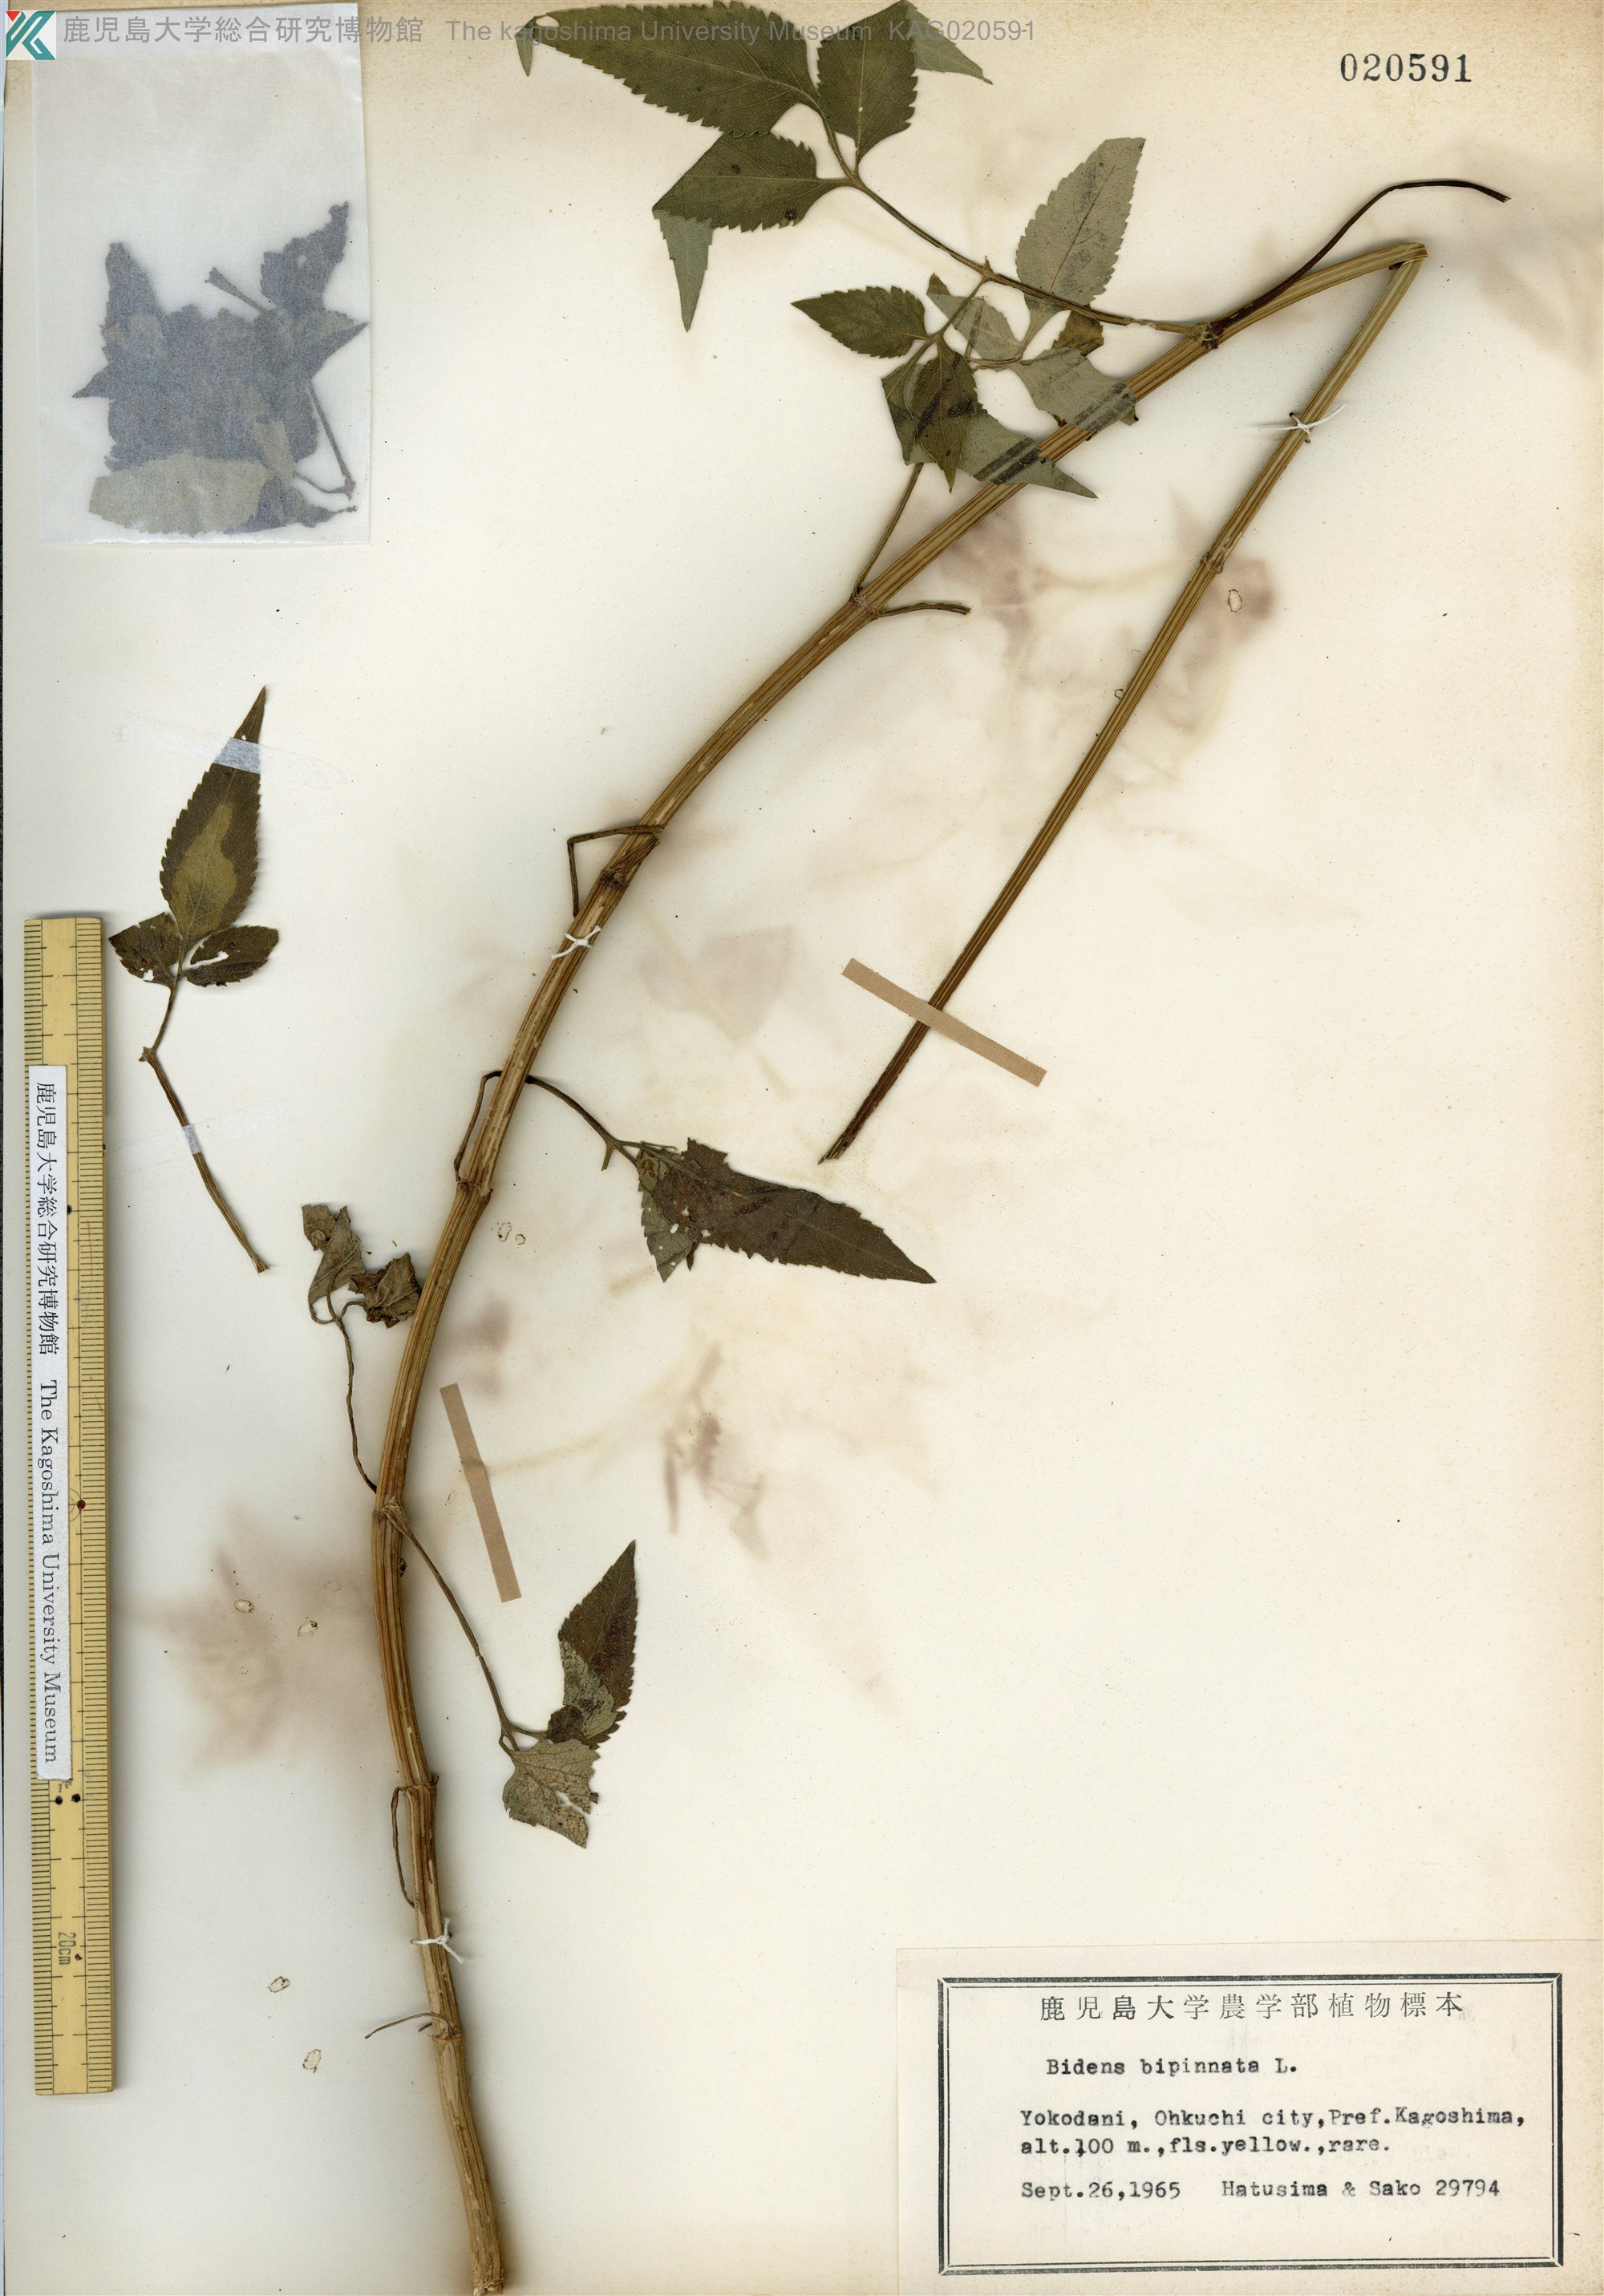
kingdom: Plantae
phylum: Tracheophyta
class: Magnoliopsida
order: Asterales
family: Asteraceae
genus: Bidens
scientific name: Bidens bipinnata
